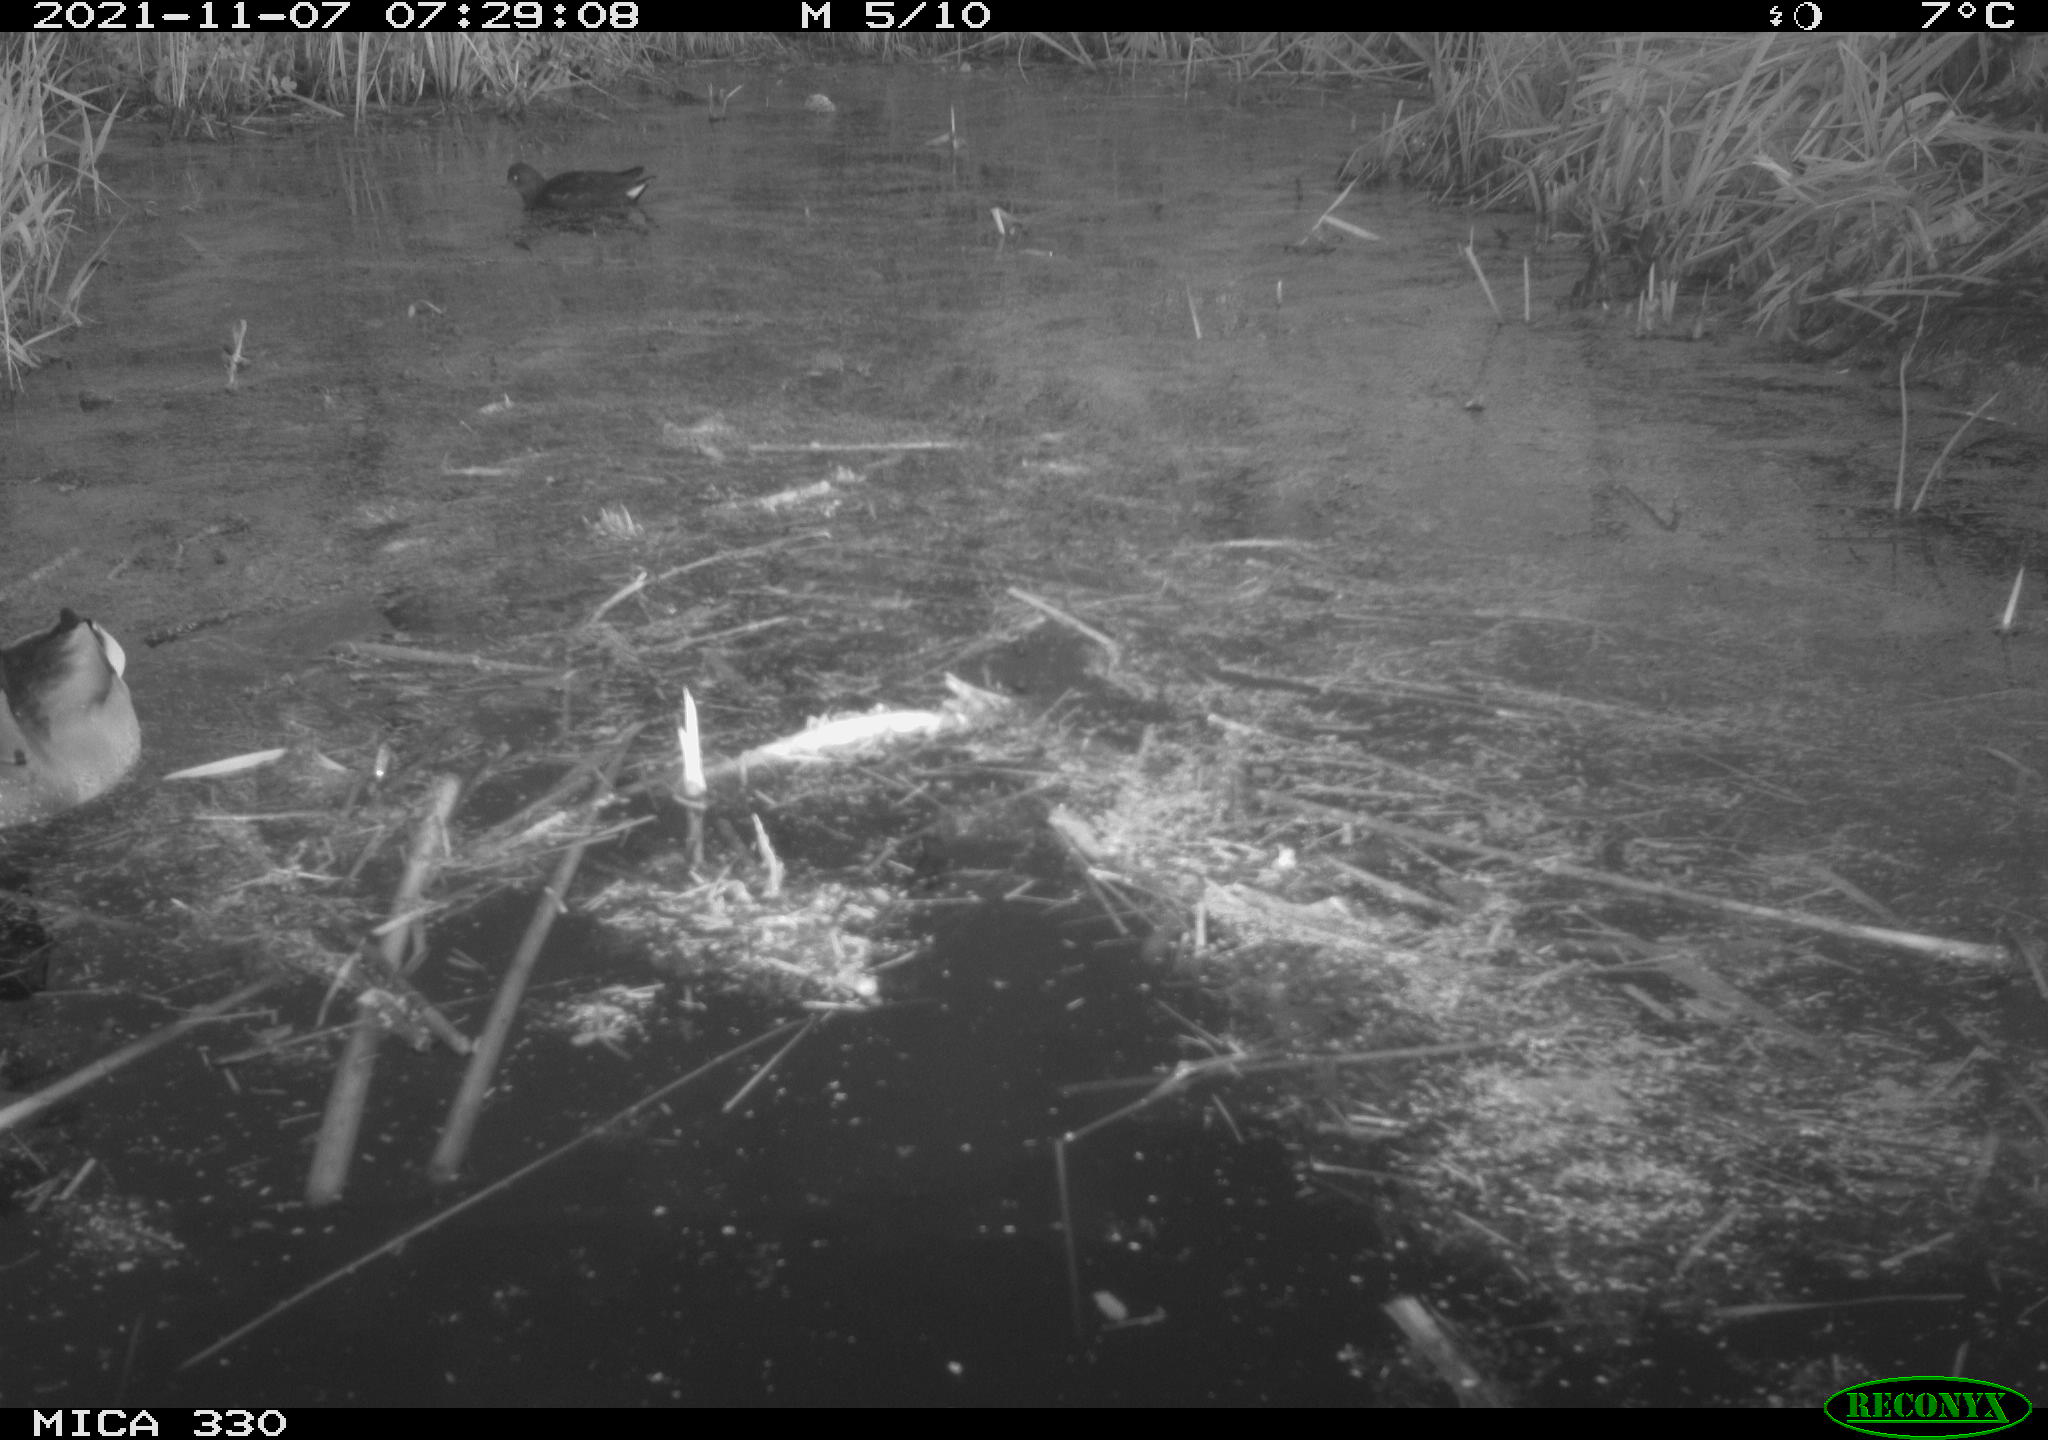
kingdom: Animalia
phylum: Chordata
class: Aves
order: Gruiformes
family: Rallidae
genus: Gallinula
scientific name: Gallinula chloropus
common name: Common moorhen
